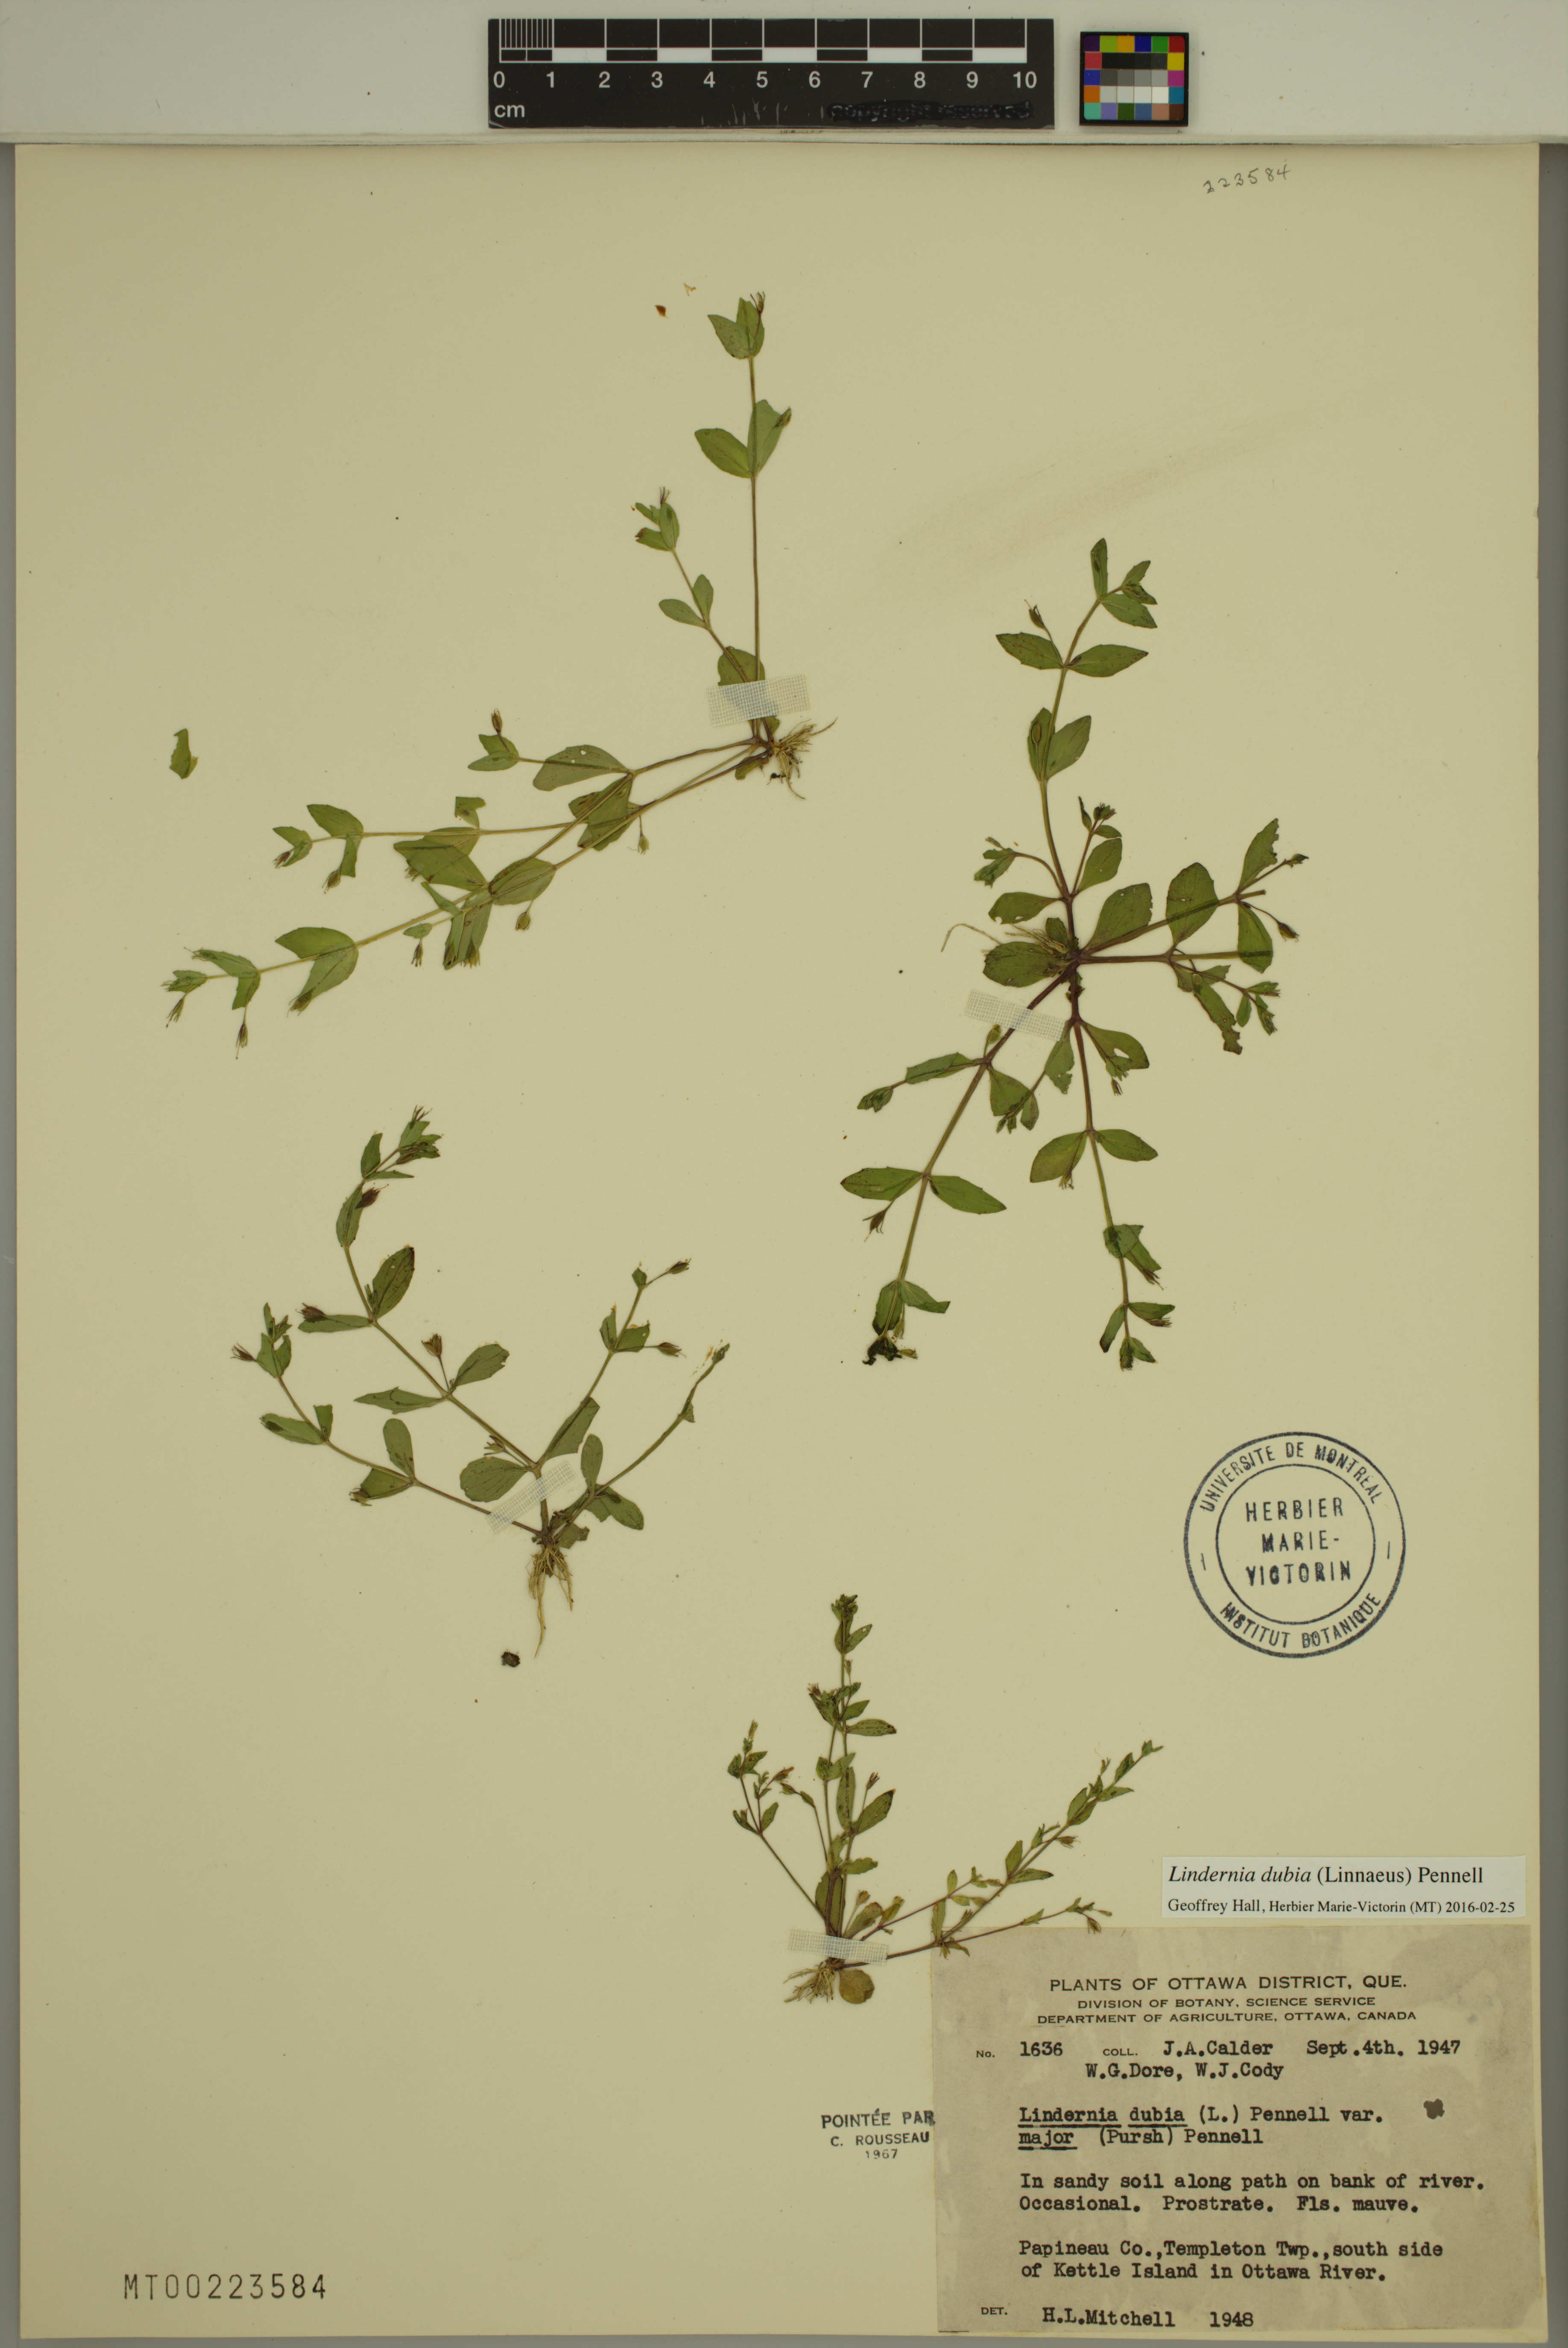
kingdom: Plantae
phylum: Tracheophyta
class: Magnoliopsida
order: Lamiales
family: Linderniaceae
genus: Lindernia
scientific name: Lindernia dubia
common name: Annual false pimpernel
